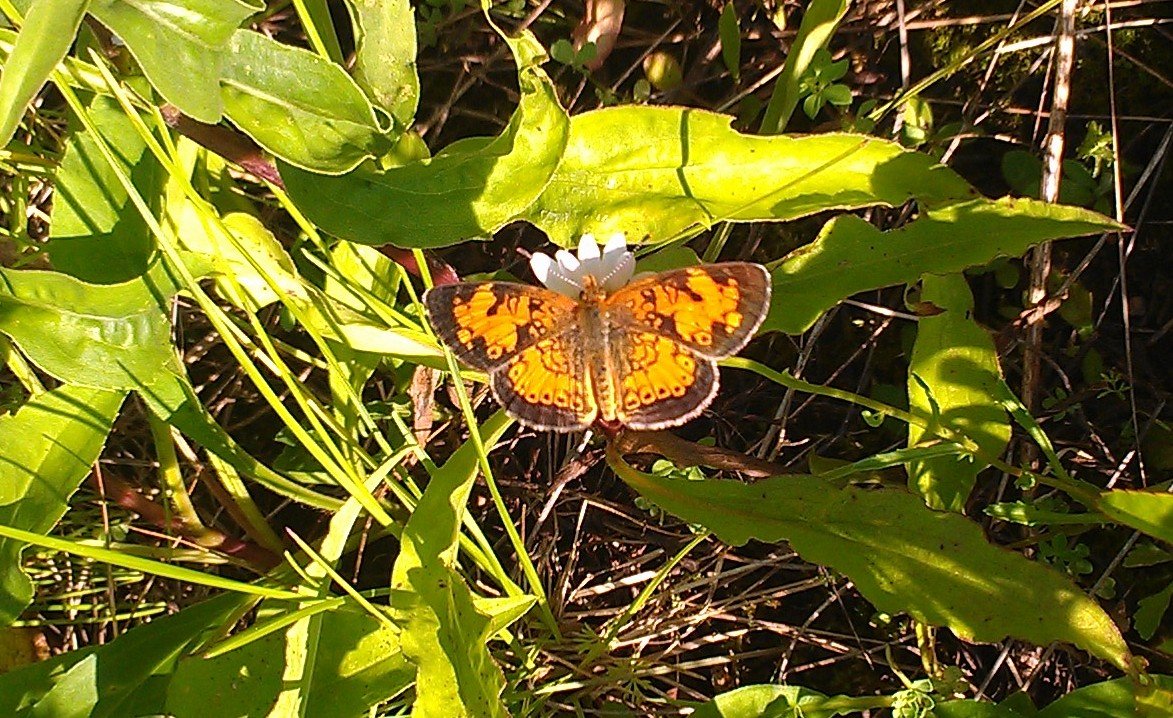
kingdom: Animalia
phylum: Arthropoda
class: Insecta
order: Lepidoptera
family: Nymphalidae
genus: Phyciodes
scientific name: Phyciodes tharos
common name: Northern Crescent
